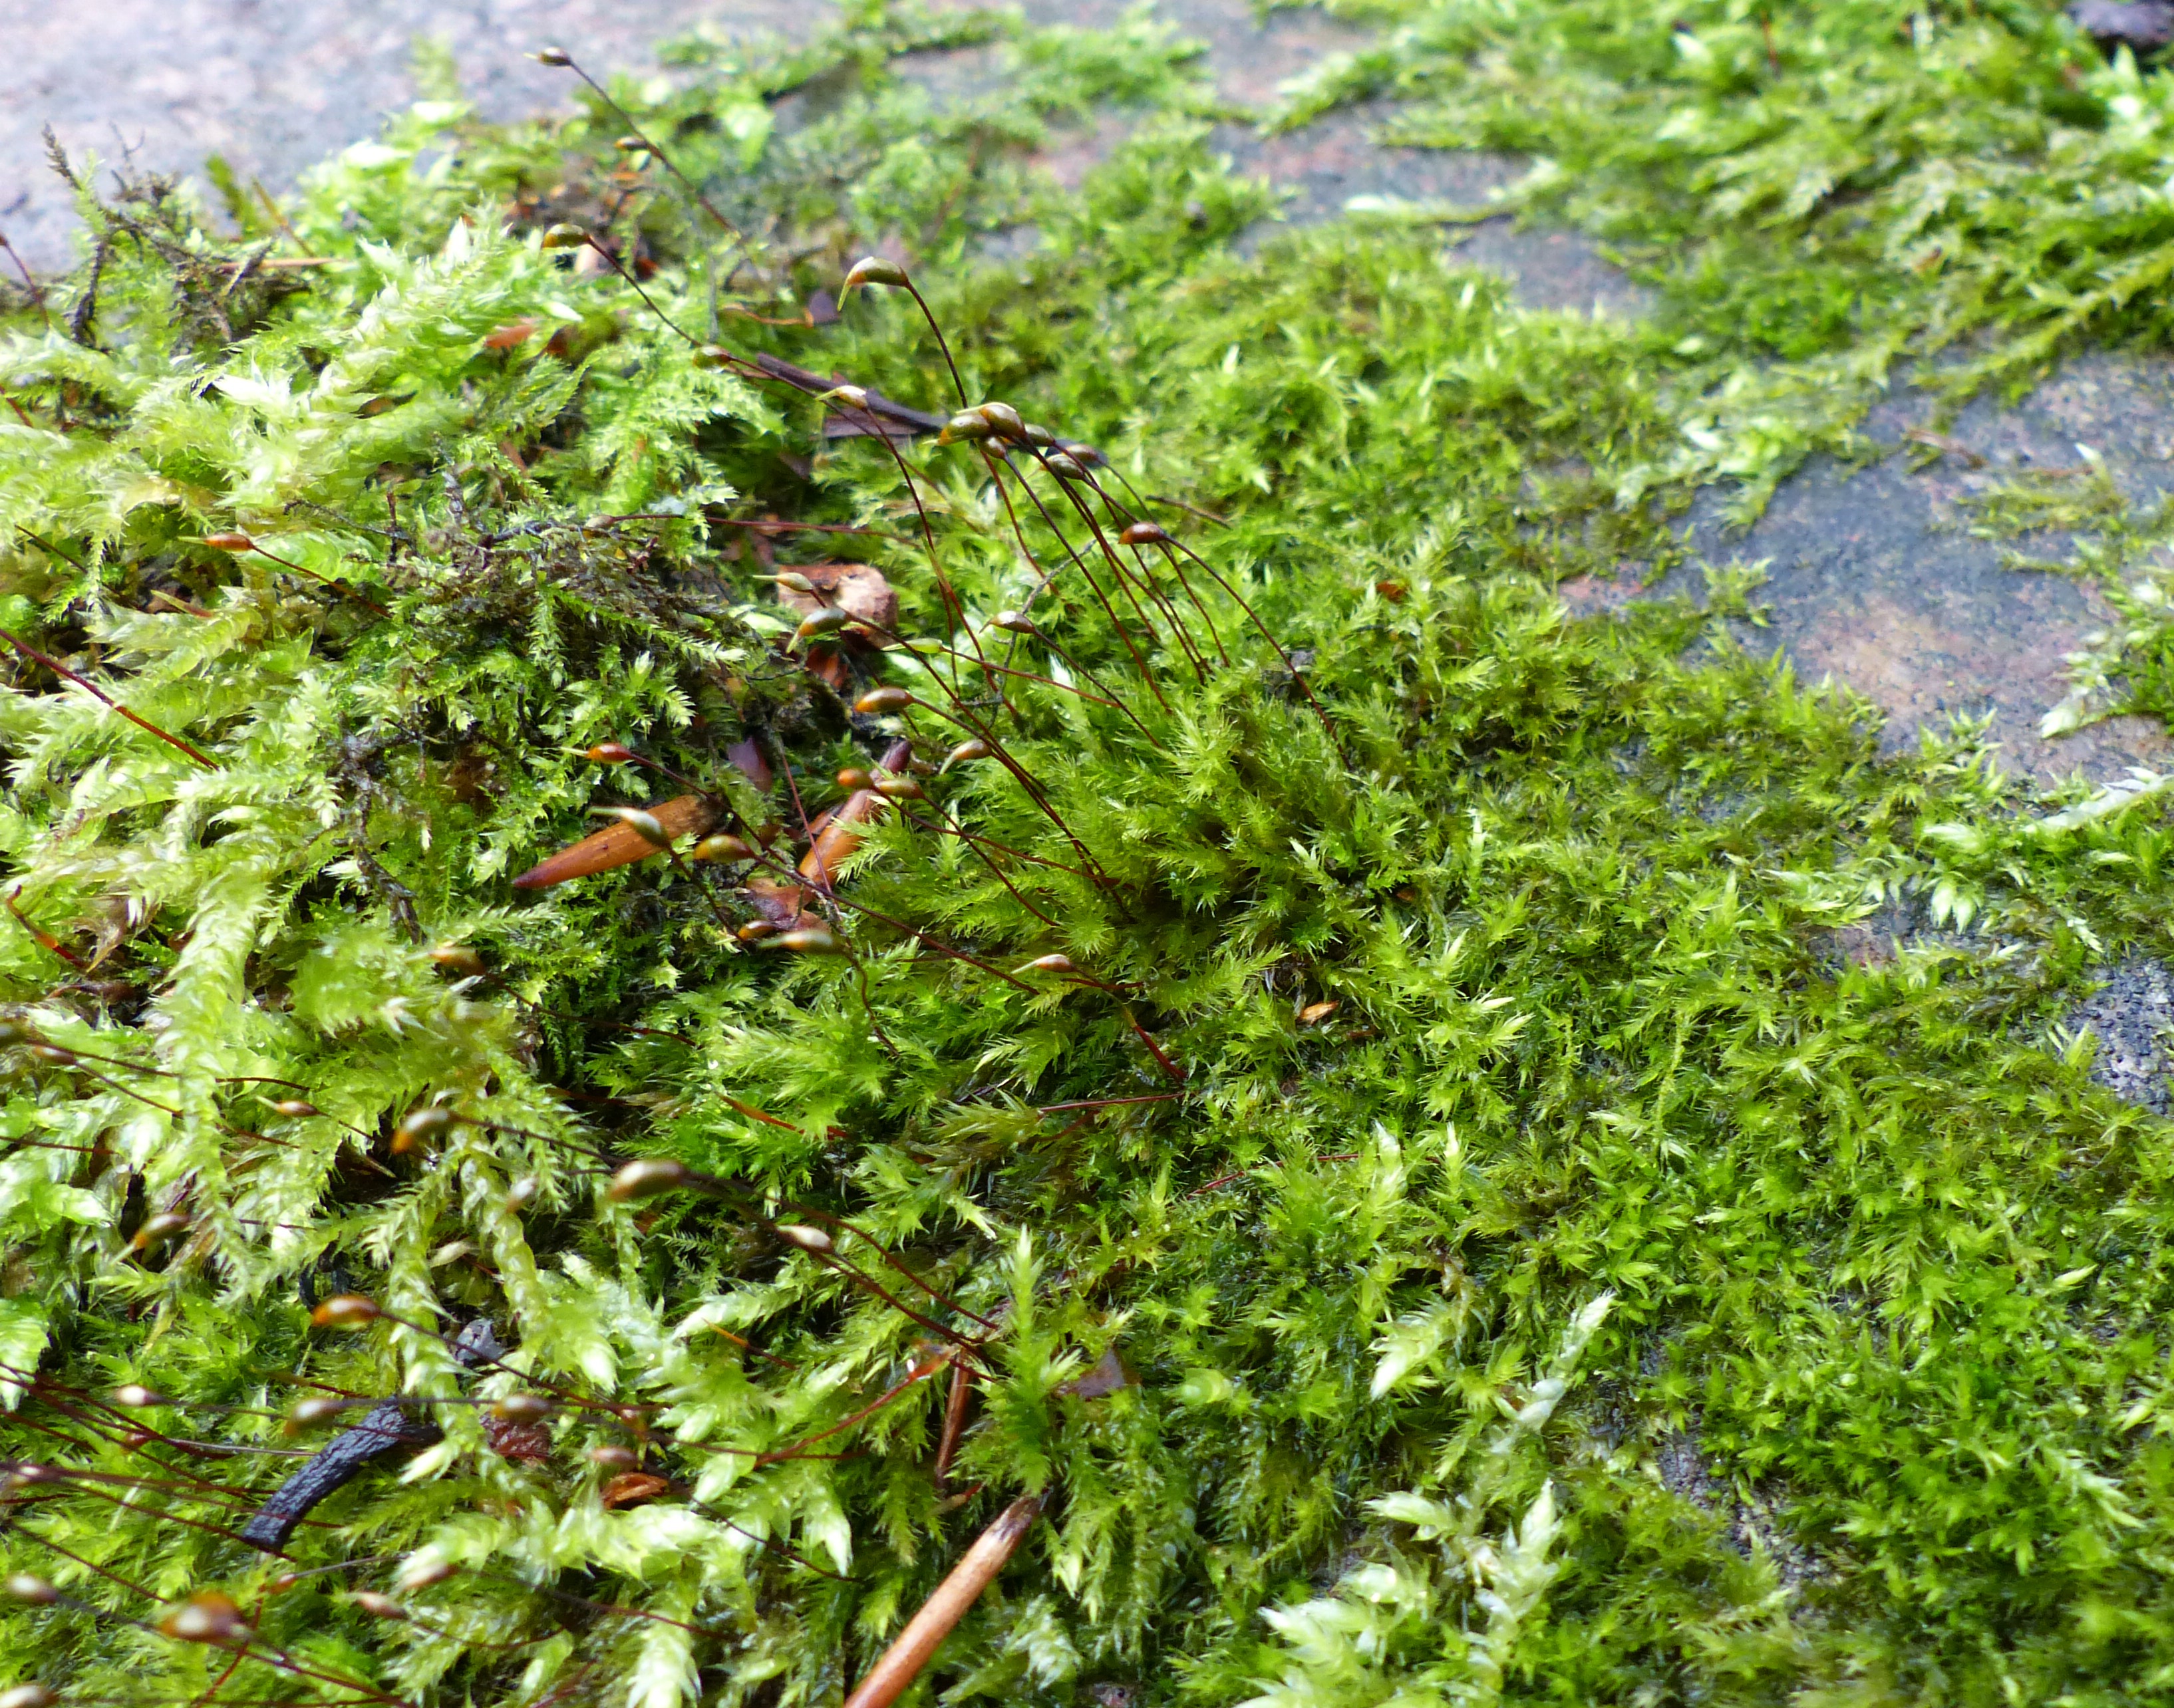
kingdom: Plantae
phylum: Bryophyta
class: Bryopsida
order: Hypnales
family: Brachytheciaceae
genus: Sciuro-hypnum
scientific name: Sciuro-hypnum populeum
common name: Park-kortkapsel
